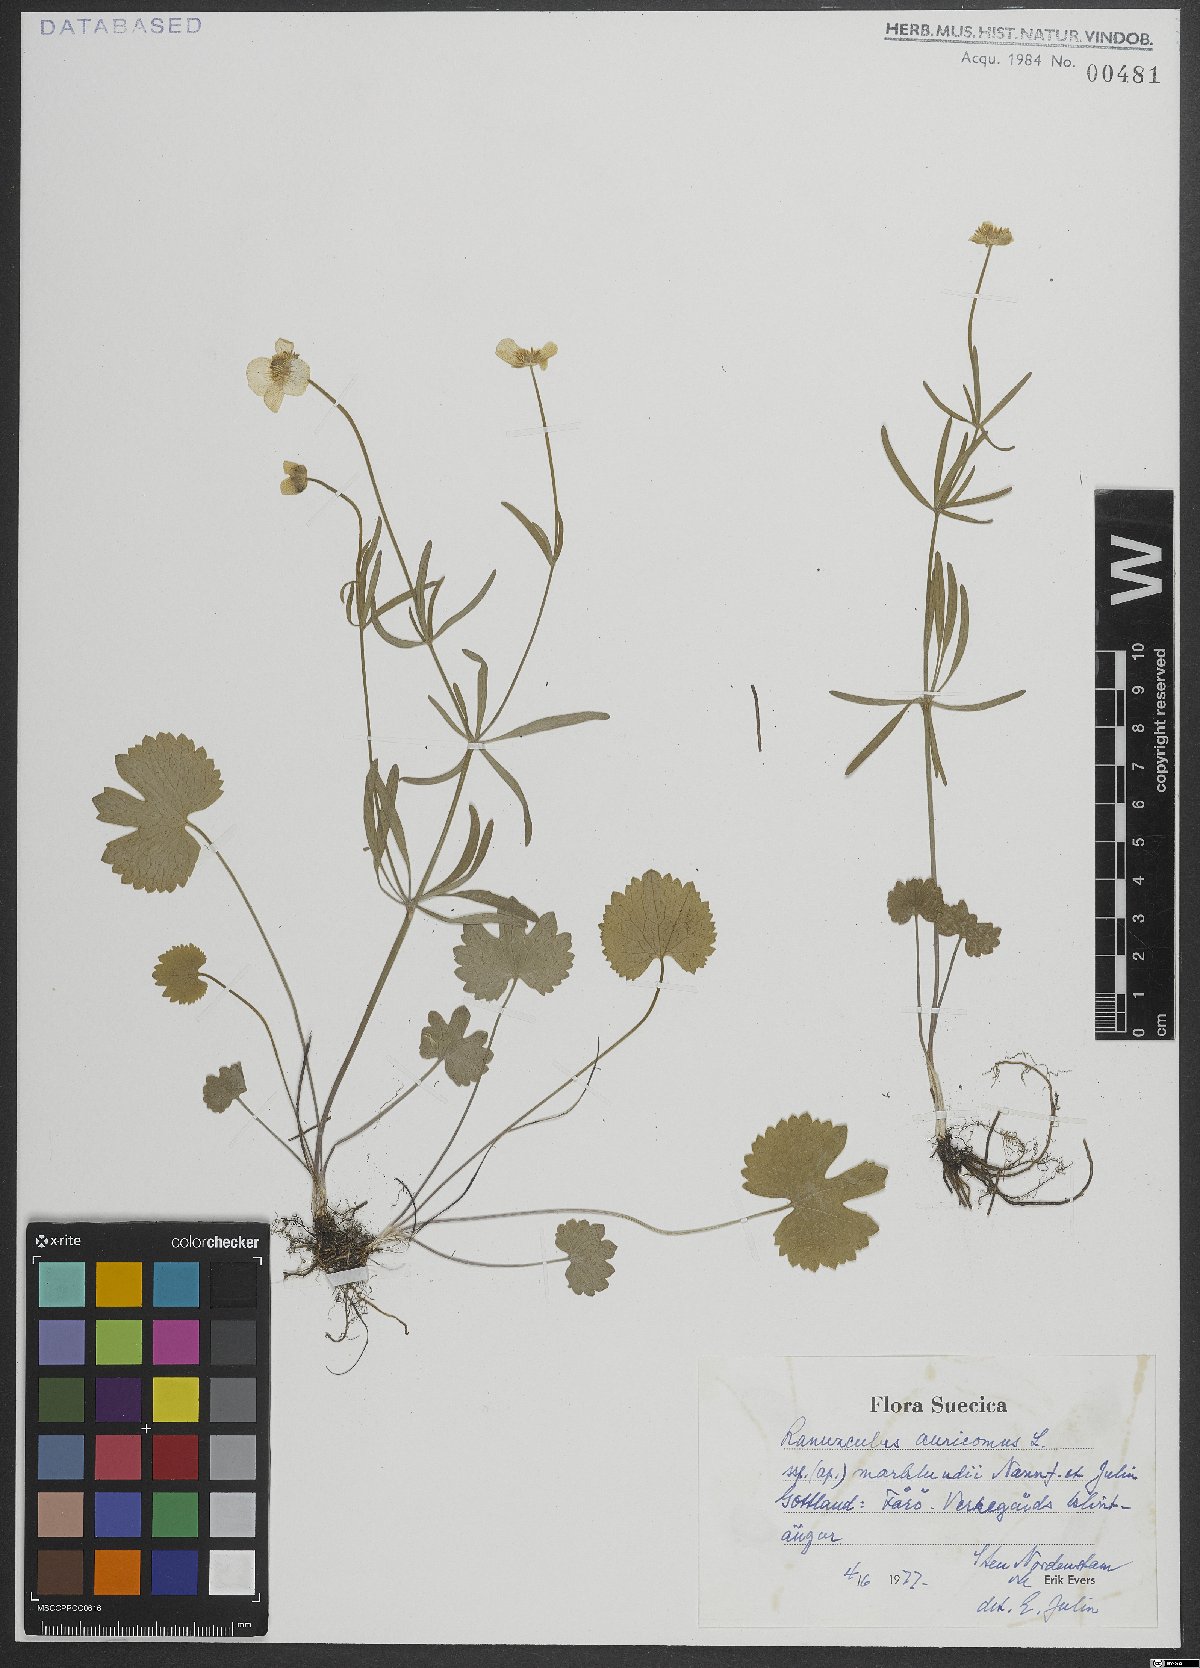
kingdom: Plantae
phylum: Tracheophyta
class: Magnoliopsida
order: Ranunculales
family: Ranunculaceae
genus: Ranunculus
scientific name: Ranunculus auricomus
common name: Goldilocks buttercup
